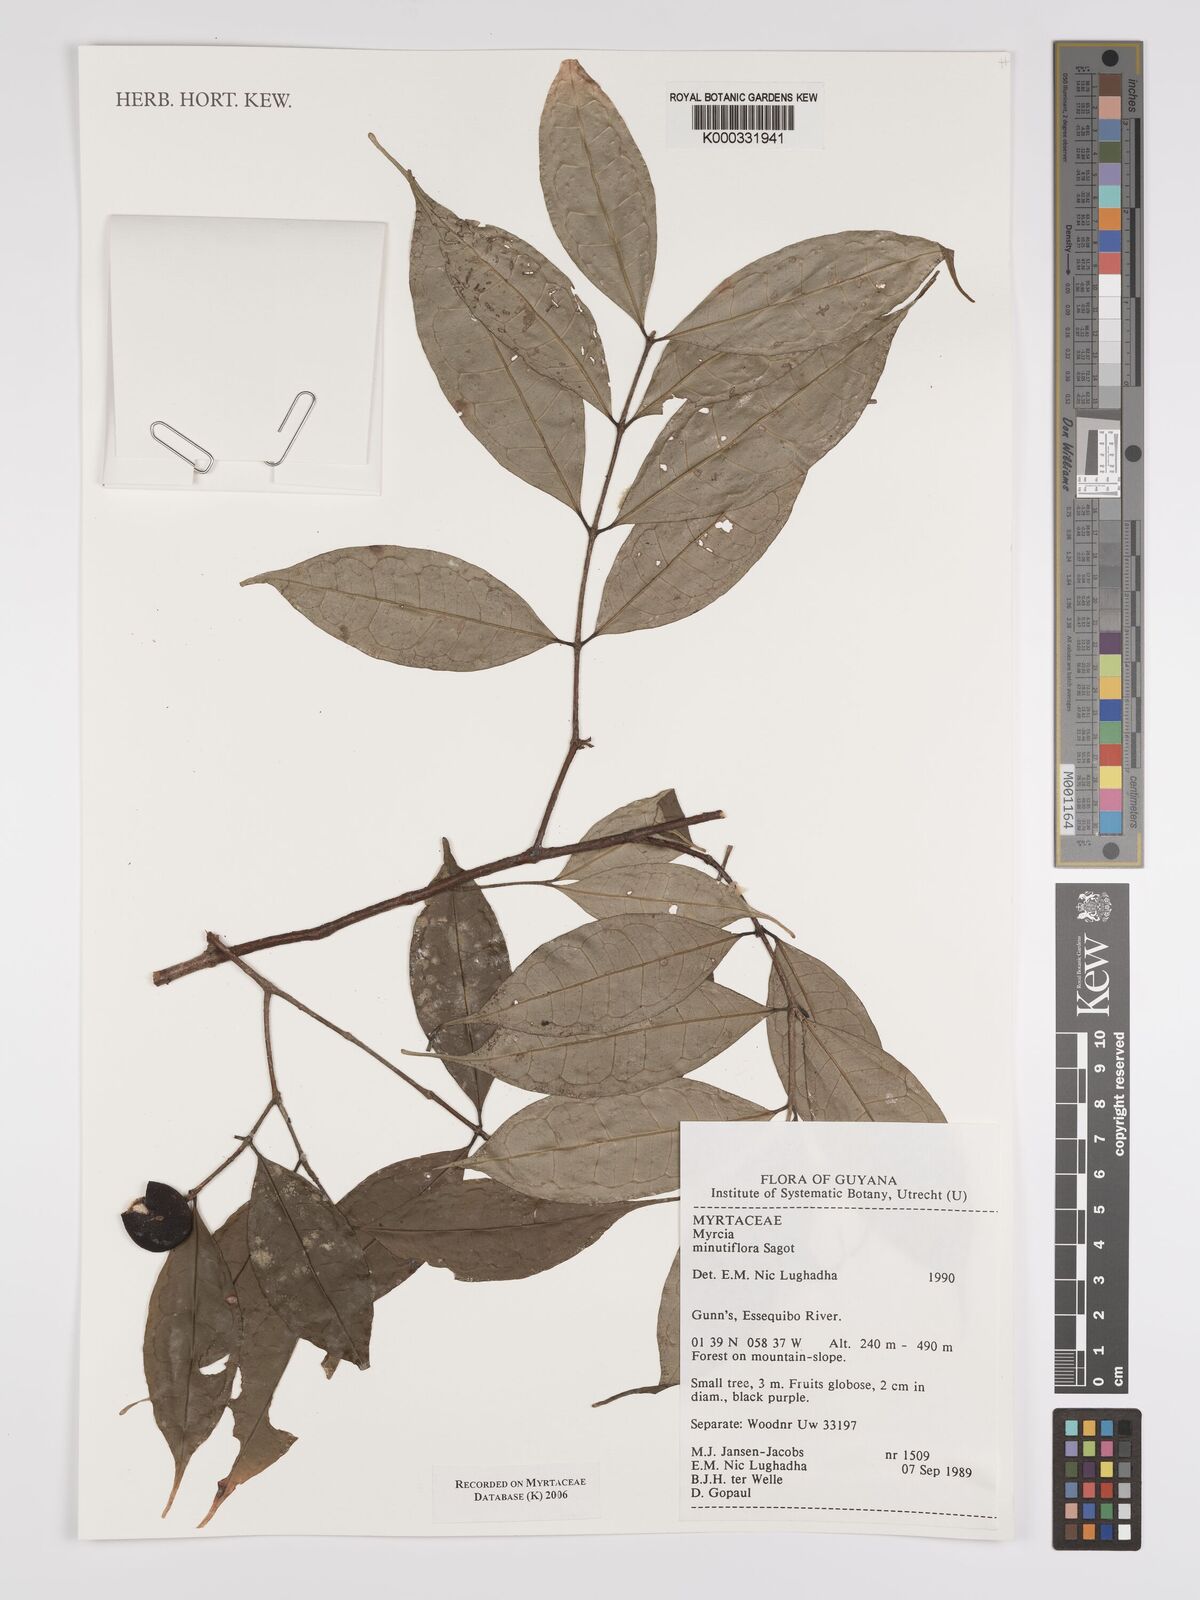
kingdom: Plantae
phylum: Tracheophyta
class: Magnoliopsida
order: Myrtales
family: Myrtaceae
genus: Myrcia
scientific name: Myrcia minutiflora
